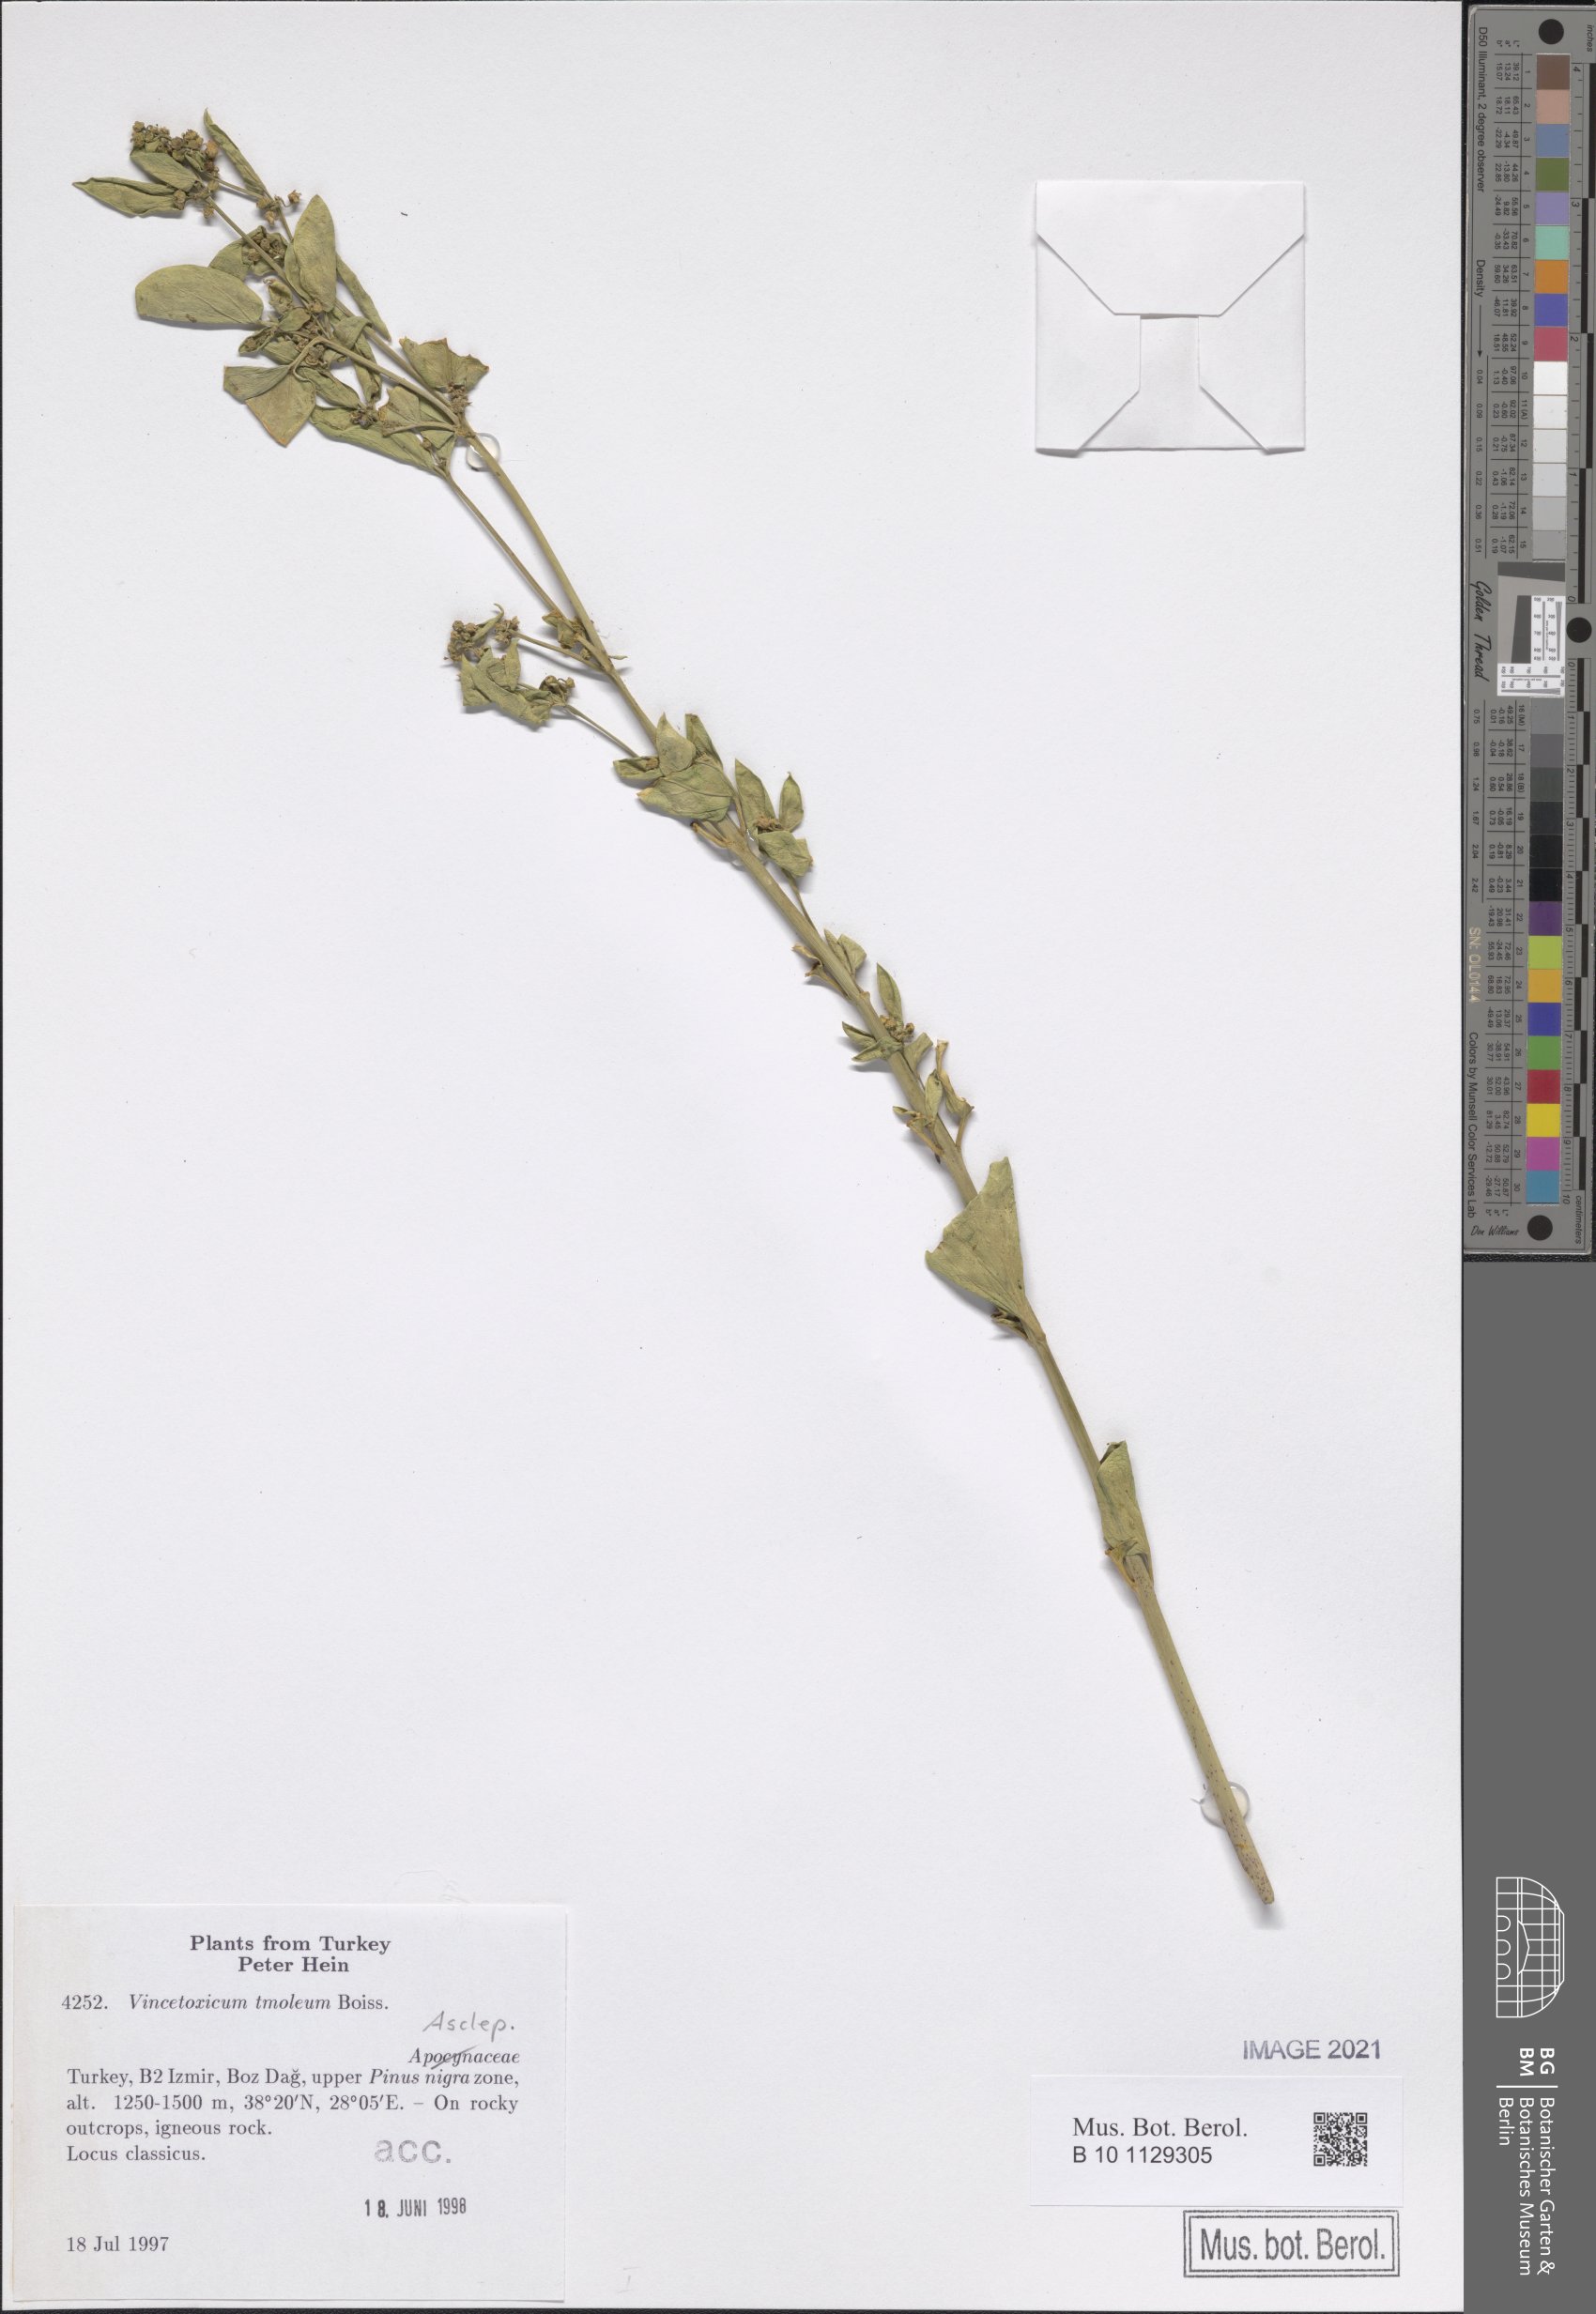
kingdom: Plantae
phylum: Tracheophyta
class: Magnoliopsida
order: Gentianales
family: Apocynaceae
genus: Vincetoxicum
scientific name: Vincetoxicum tmoleum
